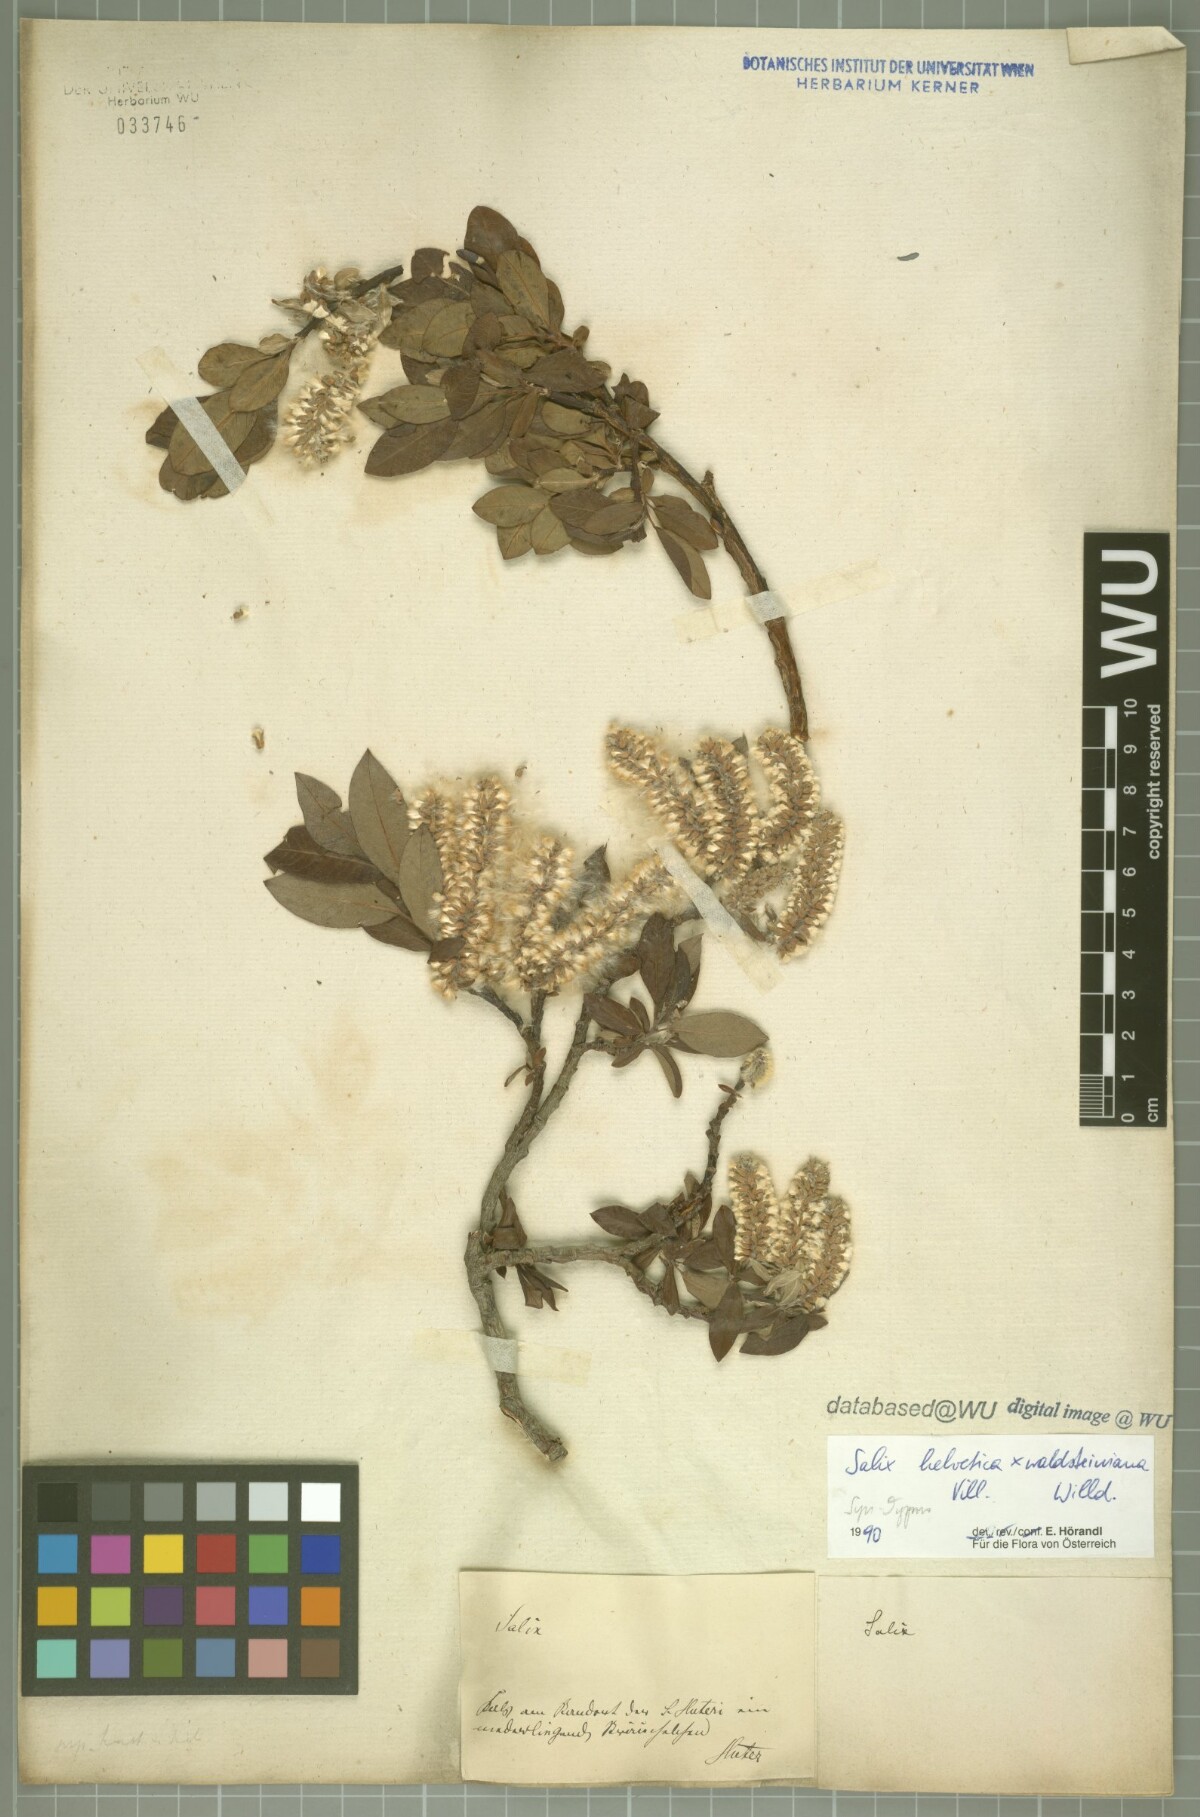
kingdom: Plantae
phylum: Tracheophyta
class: Magnoliopsida
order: Malpighiales
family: Salicaceae
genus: Salix
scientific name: Salix lapponum
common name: Downy willow
